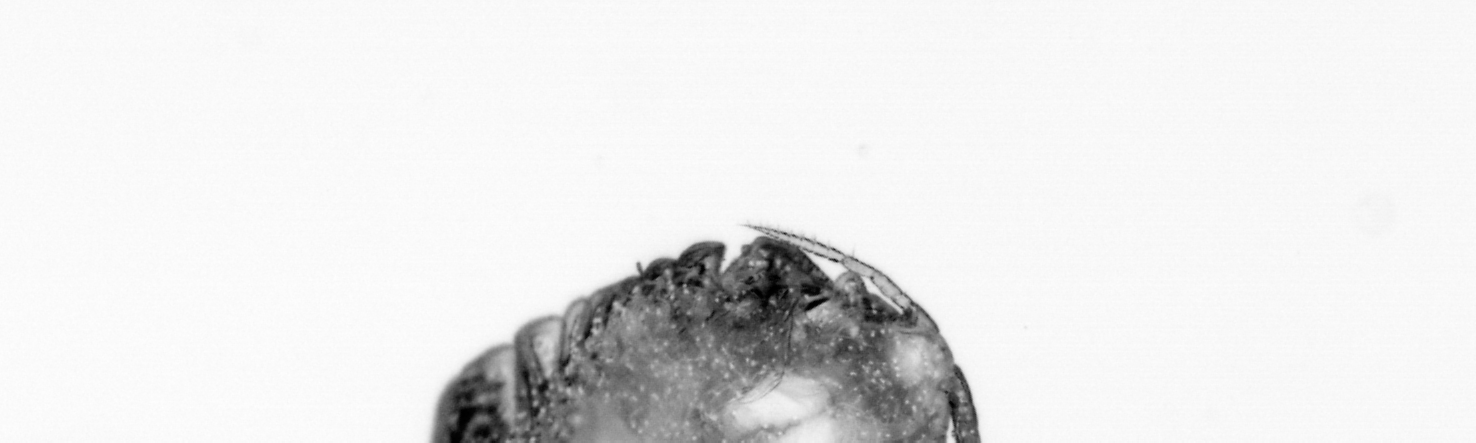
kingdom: Animalia
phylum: Annelida
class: Polychaeta
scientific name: Polychaeta
